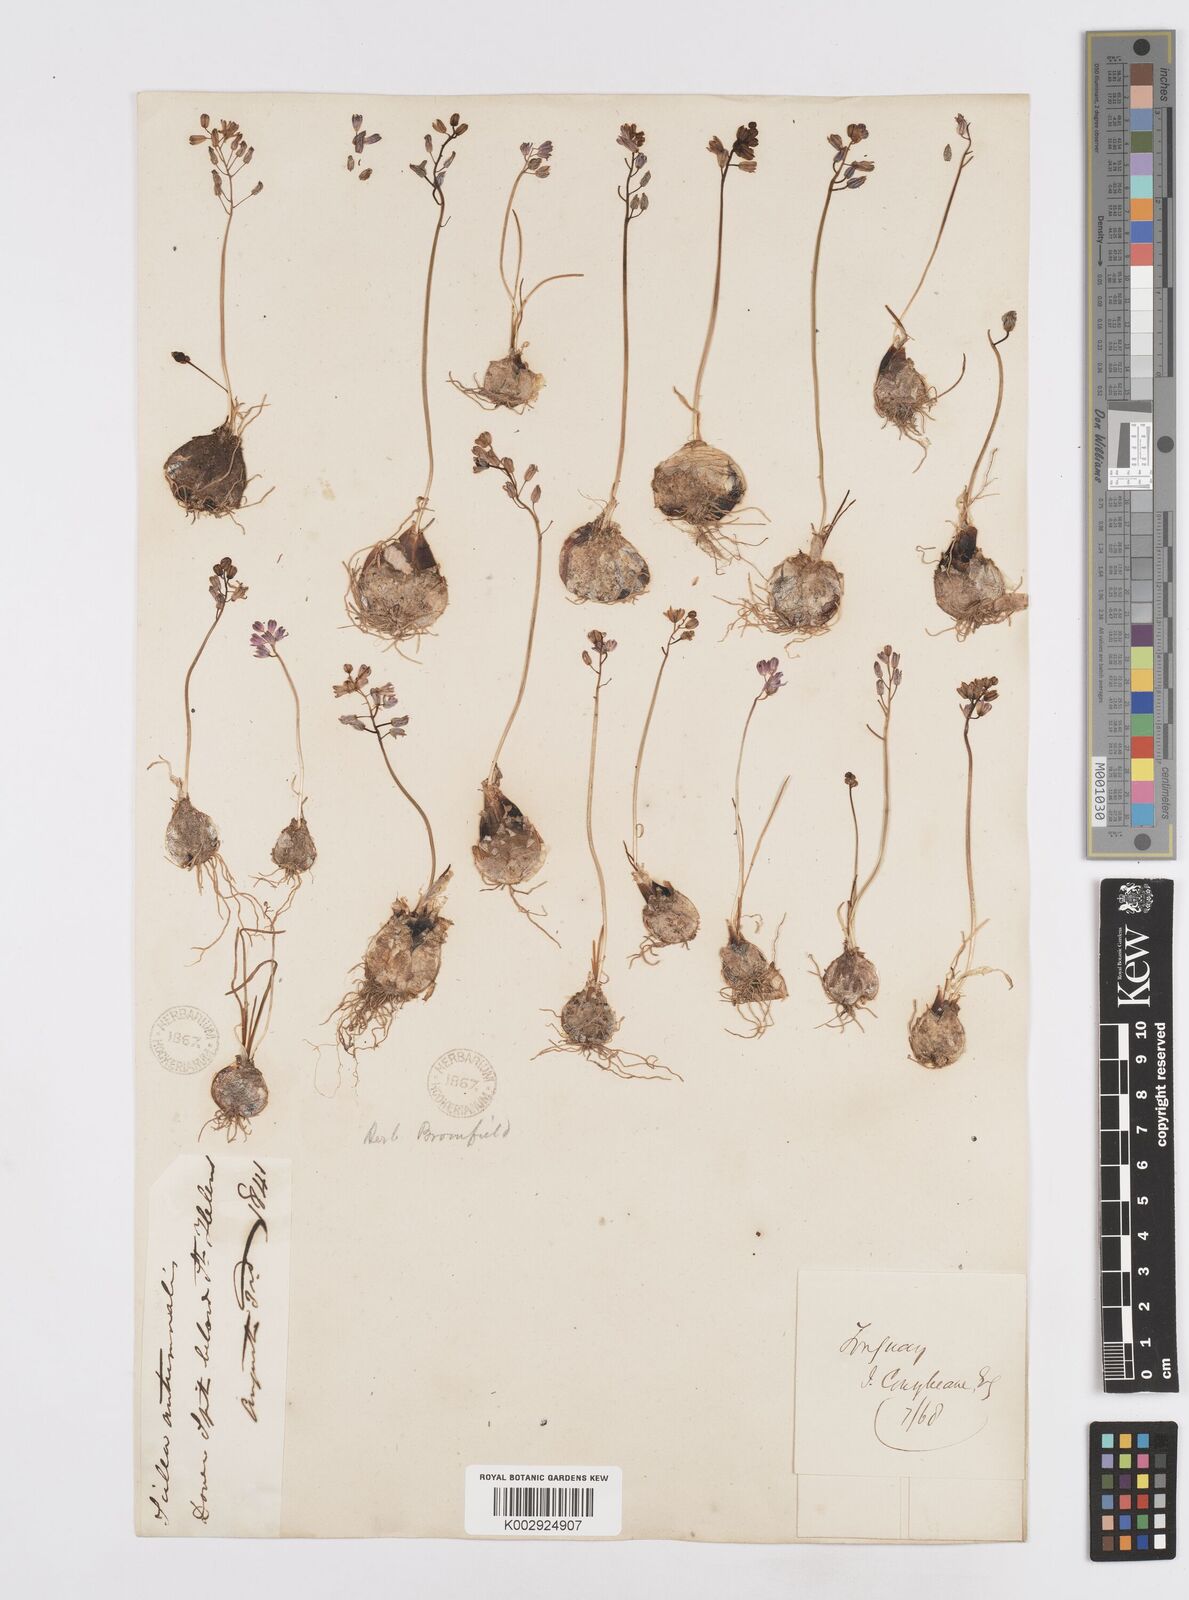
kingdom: Plantae
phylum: Tracheophyta
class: Liliopsida
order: Asparagales
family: Asparagaceae
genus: Prospero
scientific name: Prospero autumnale
